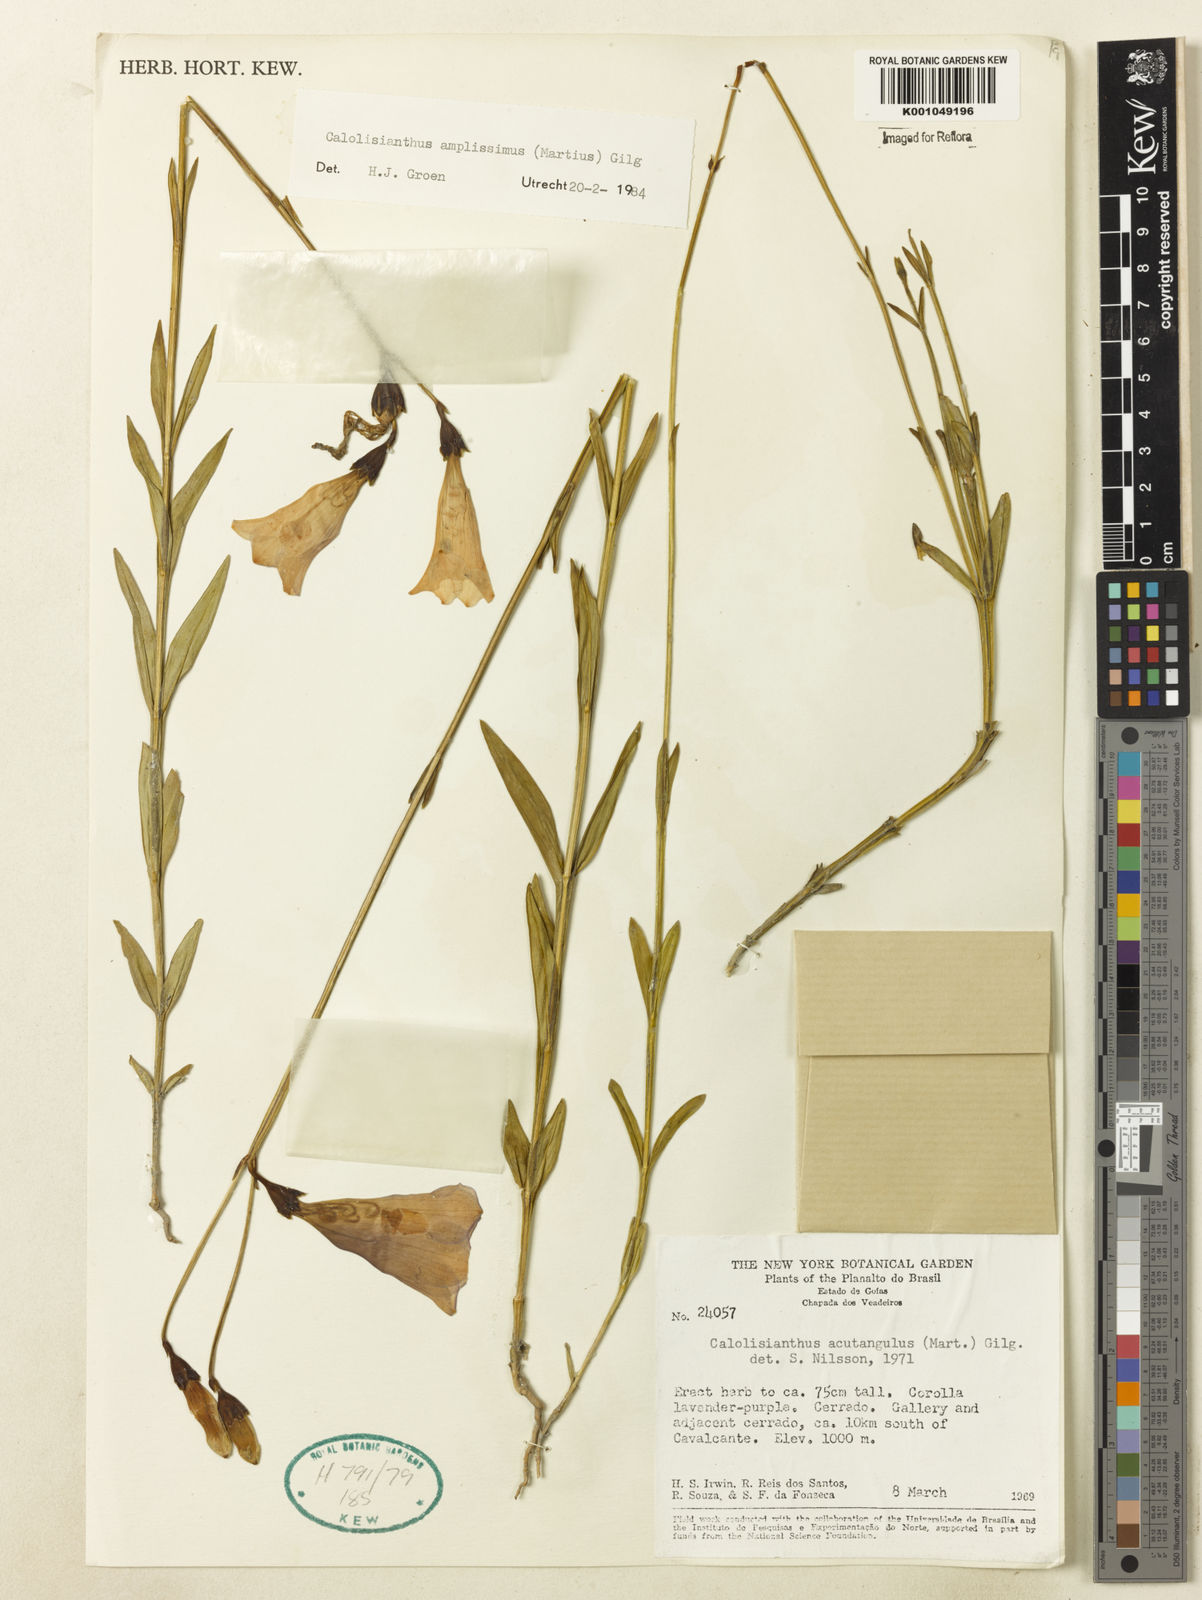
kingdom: Plantae
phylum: Tracheophyta
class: Magnoliopsida
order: Gentianales
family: Gentianaceae
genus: Calolisianthus
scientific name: Calolisianthus amplissimus
